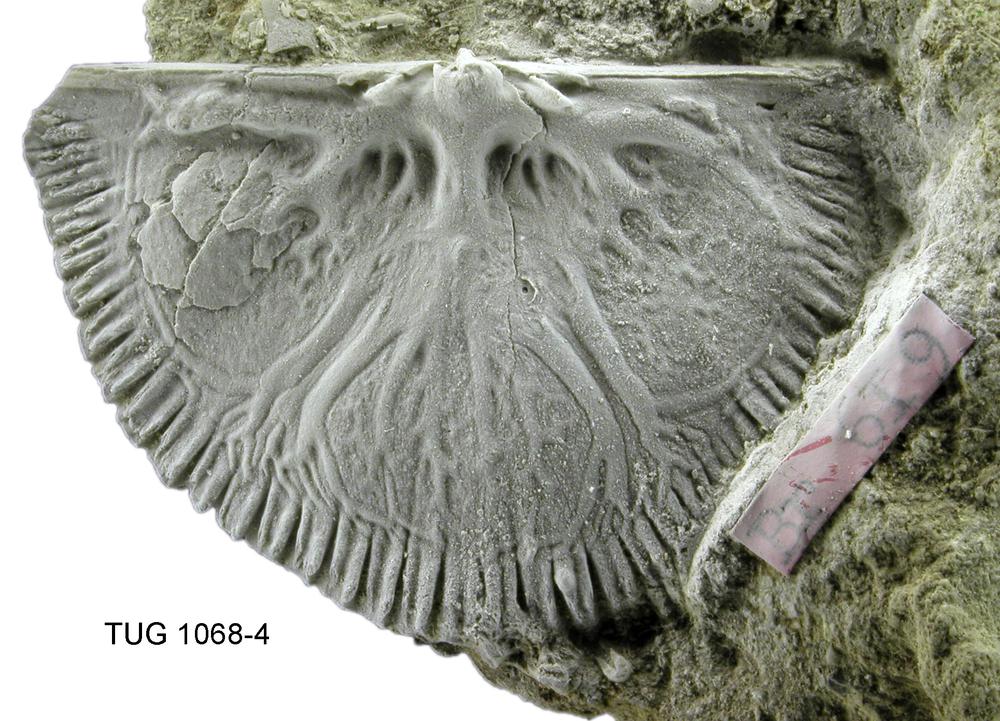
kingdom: Animalia
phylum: Brachiopoda
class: Rhynchonellata
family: Orthidae
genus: Cyrtonotella
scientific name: Cyrtonotella Orthis kuckersiana
